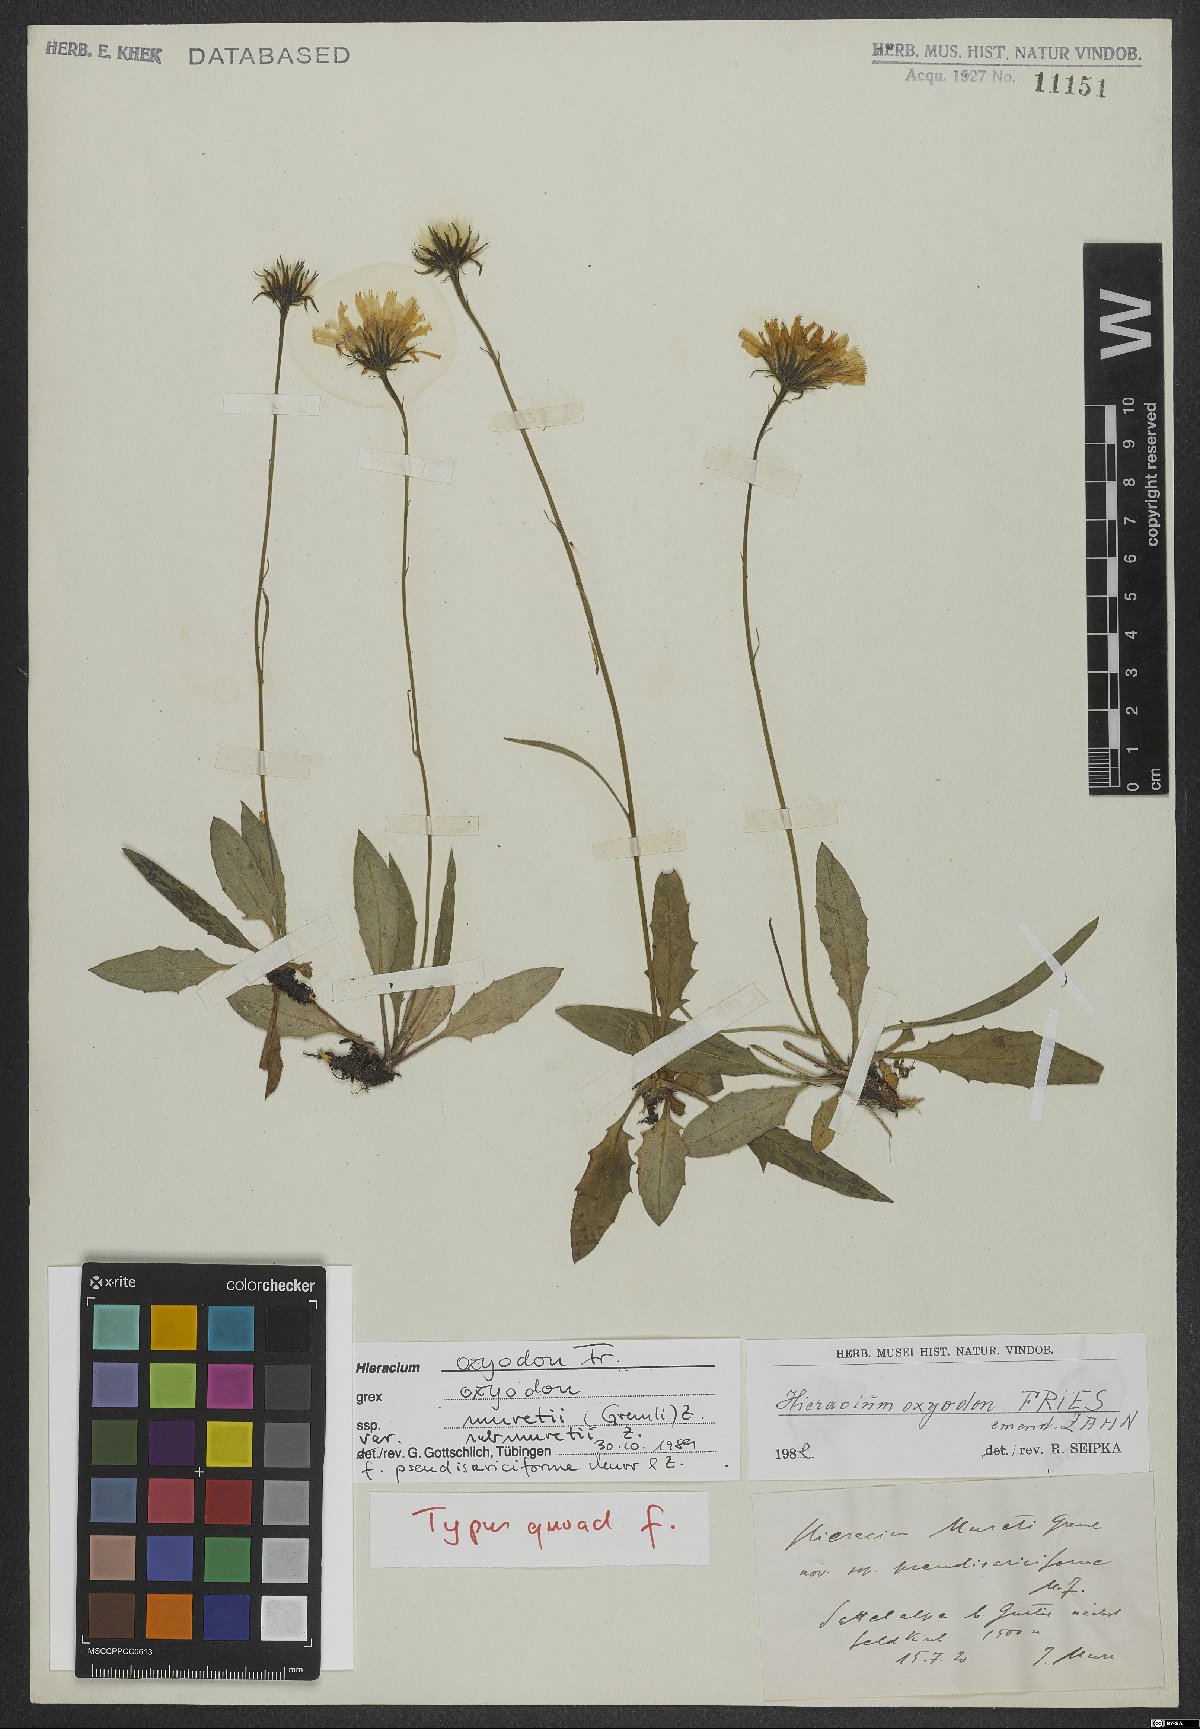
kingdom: Plantae
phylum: Tracheophyta
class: Magnoliopsida
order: Asterales
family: Asteraceae
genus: Hieracium
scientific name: Hieracium oxyodon
